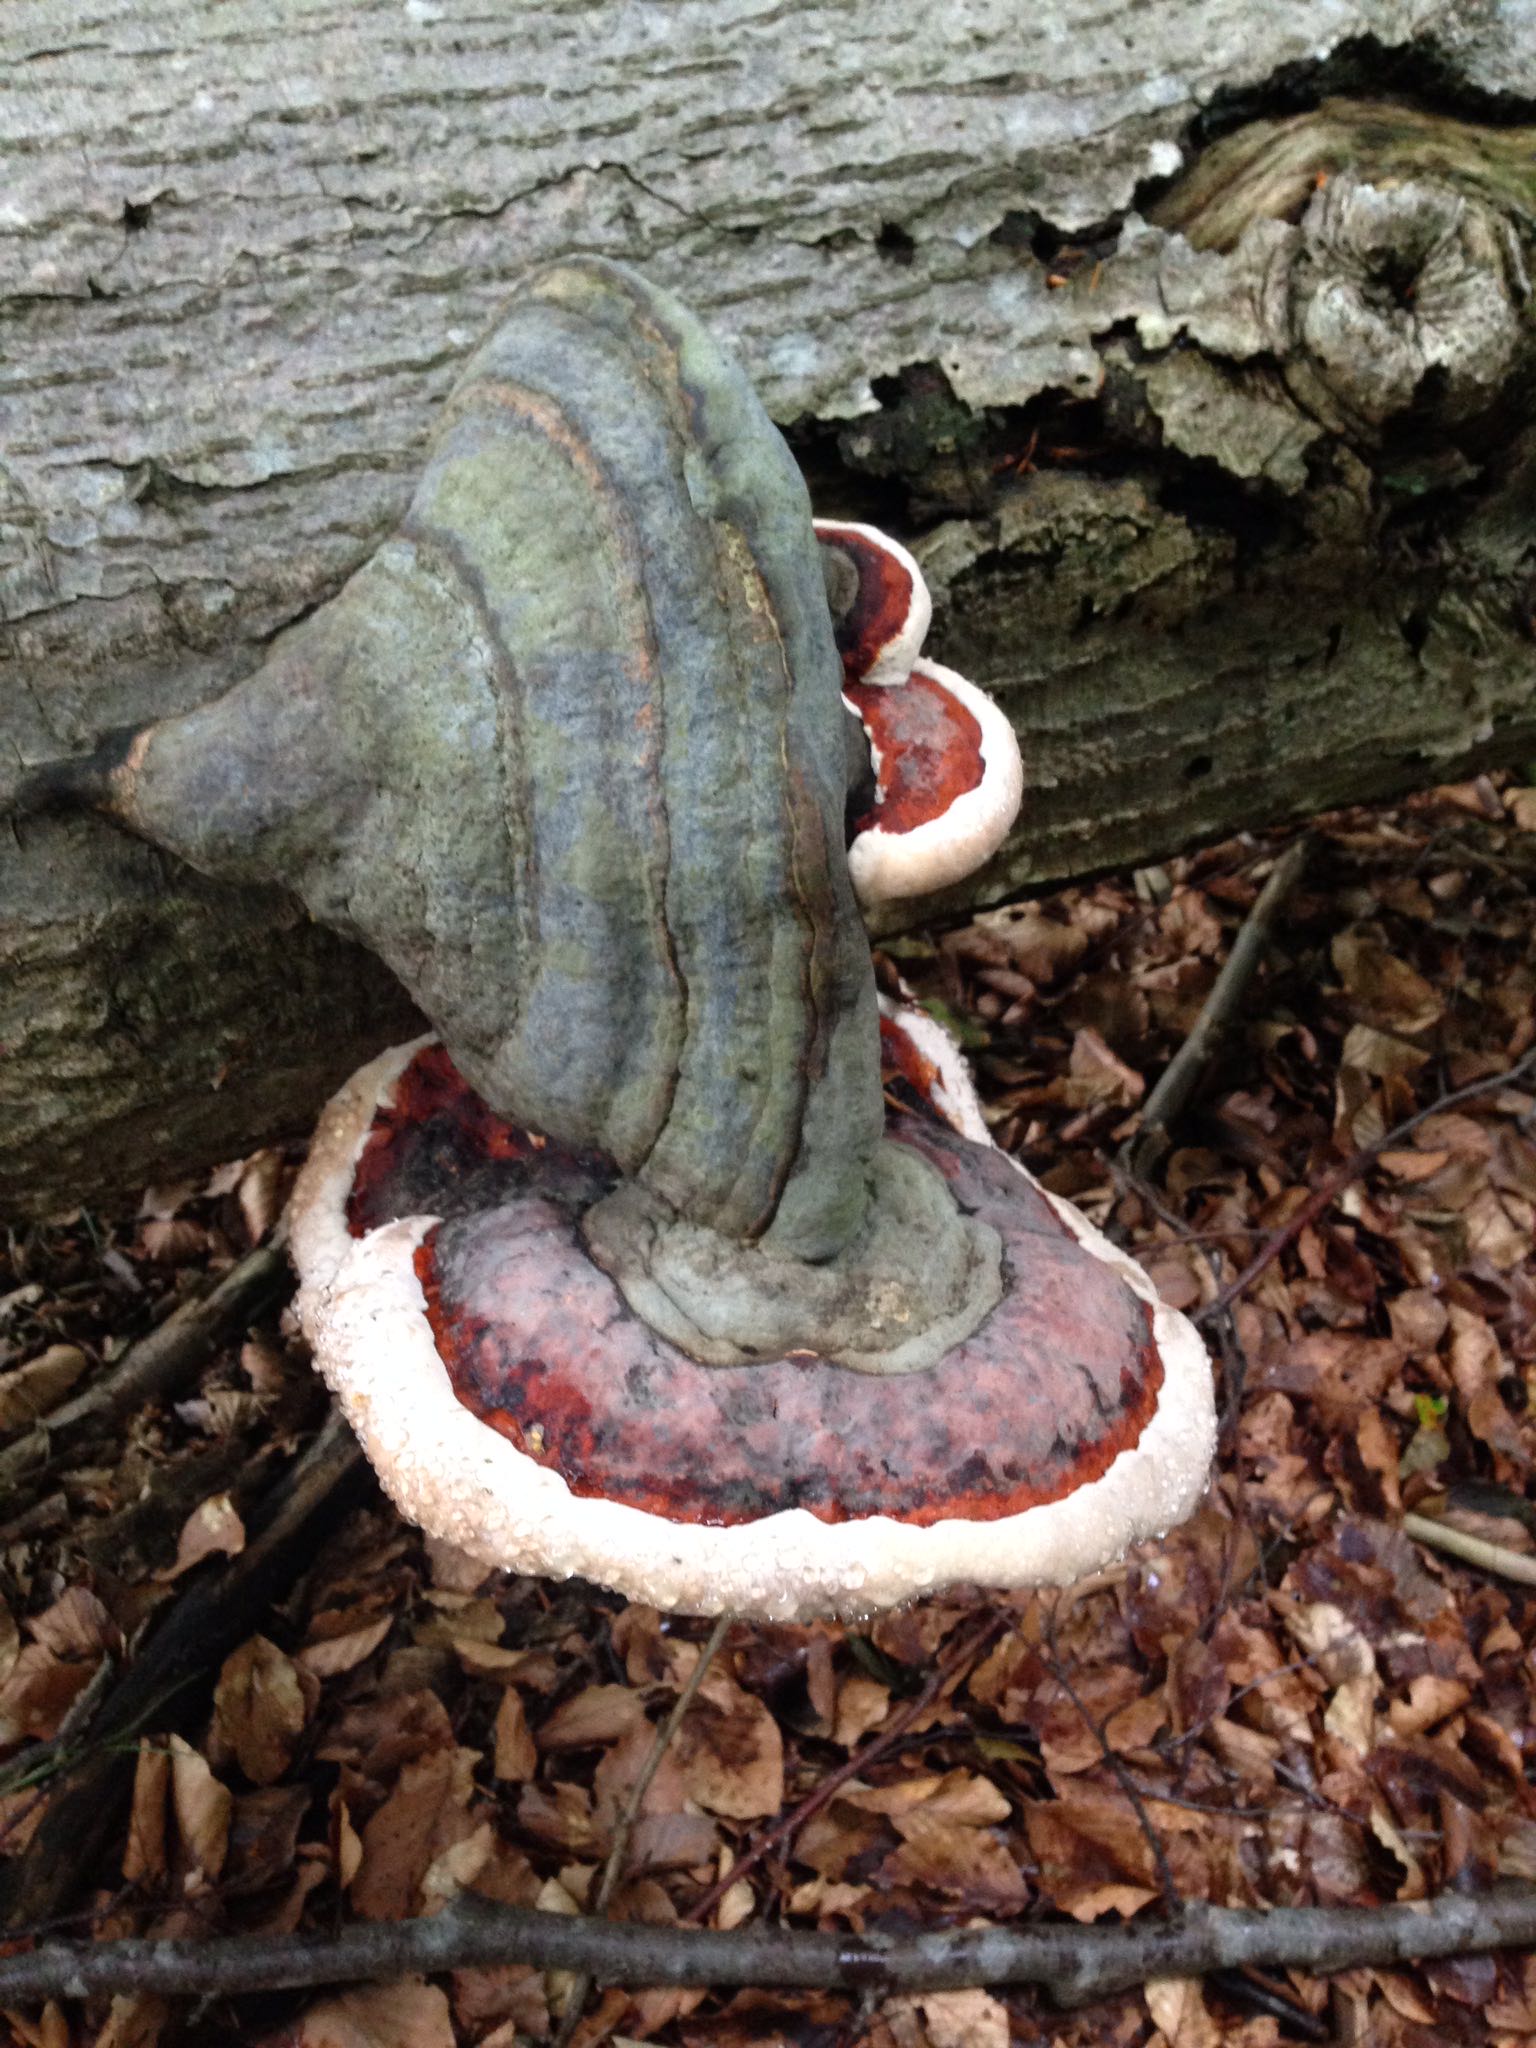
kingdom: Fungi
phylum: Basidiomycota
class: Agaricomycetes
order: Polyporales
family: Fomitopsidaceae
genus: Fomitopsis
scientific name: Fomitopsis pinicola
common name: randbæltet hovporesvamp
